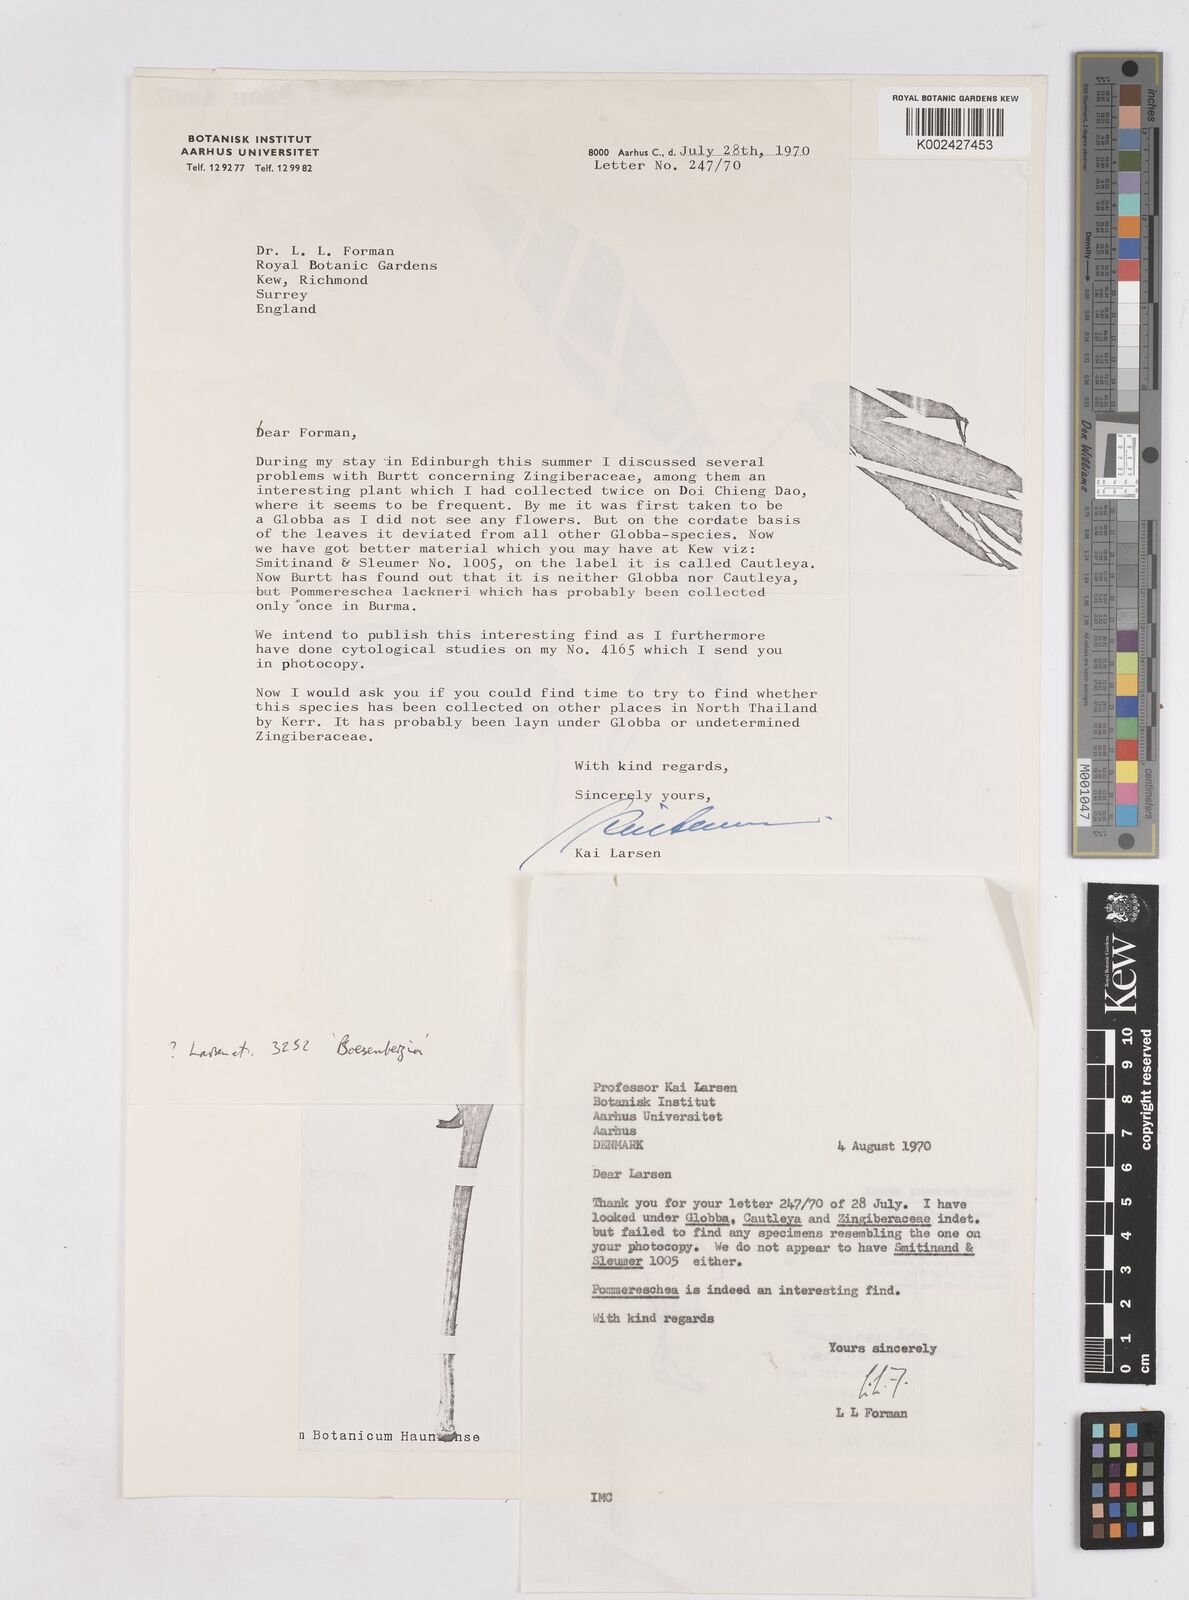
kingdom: Plantae
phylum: Tracheophyta
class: Liliopsida
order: Zingiberales
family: Zingiberaceae
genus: Pommereschea
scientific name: Pommereschea lackneri
